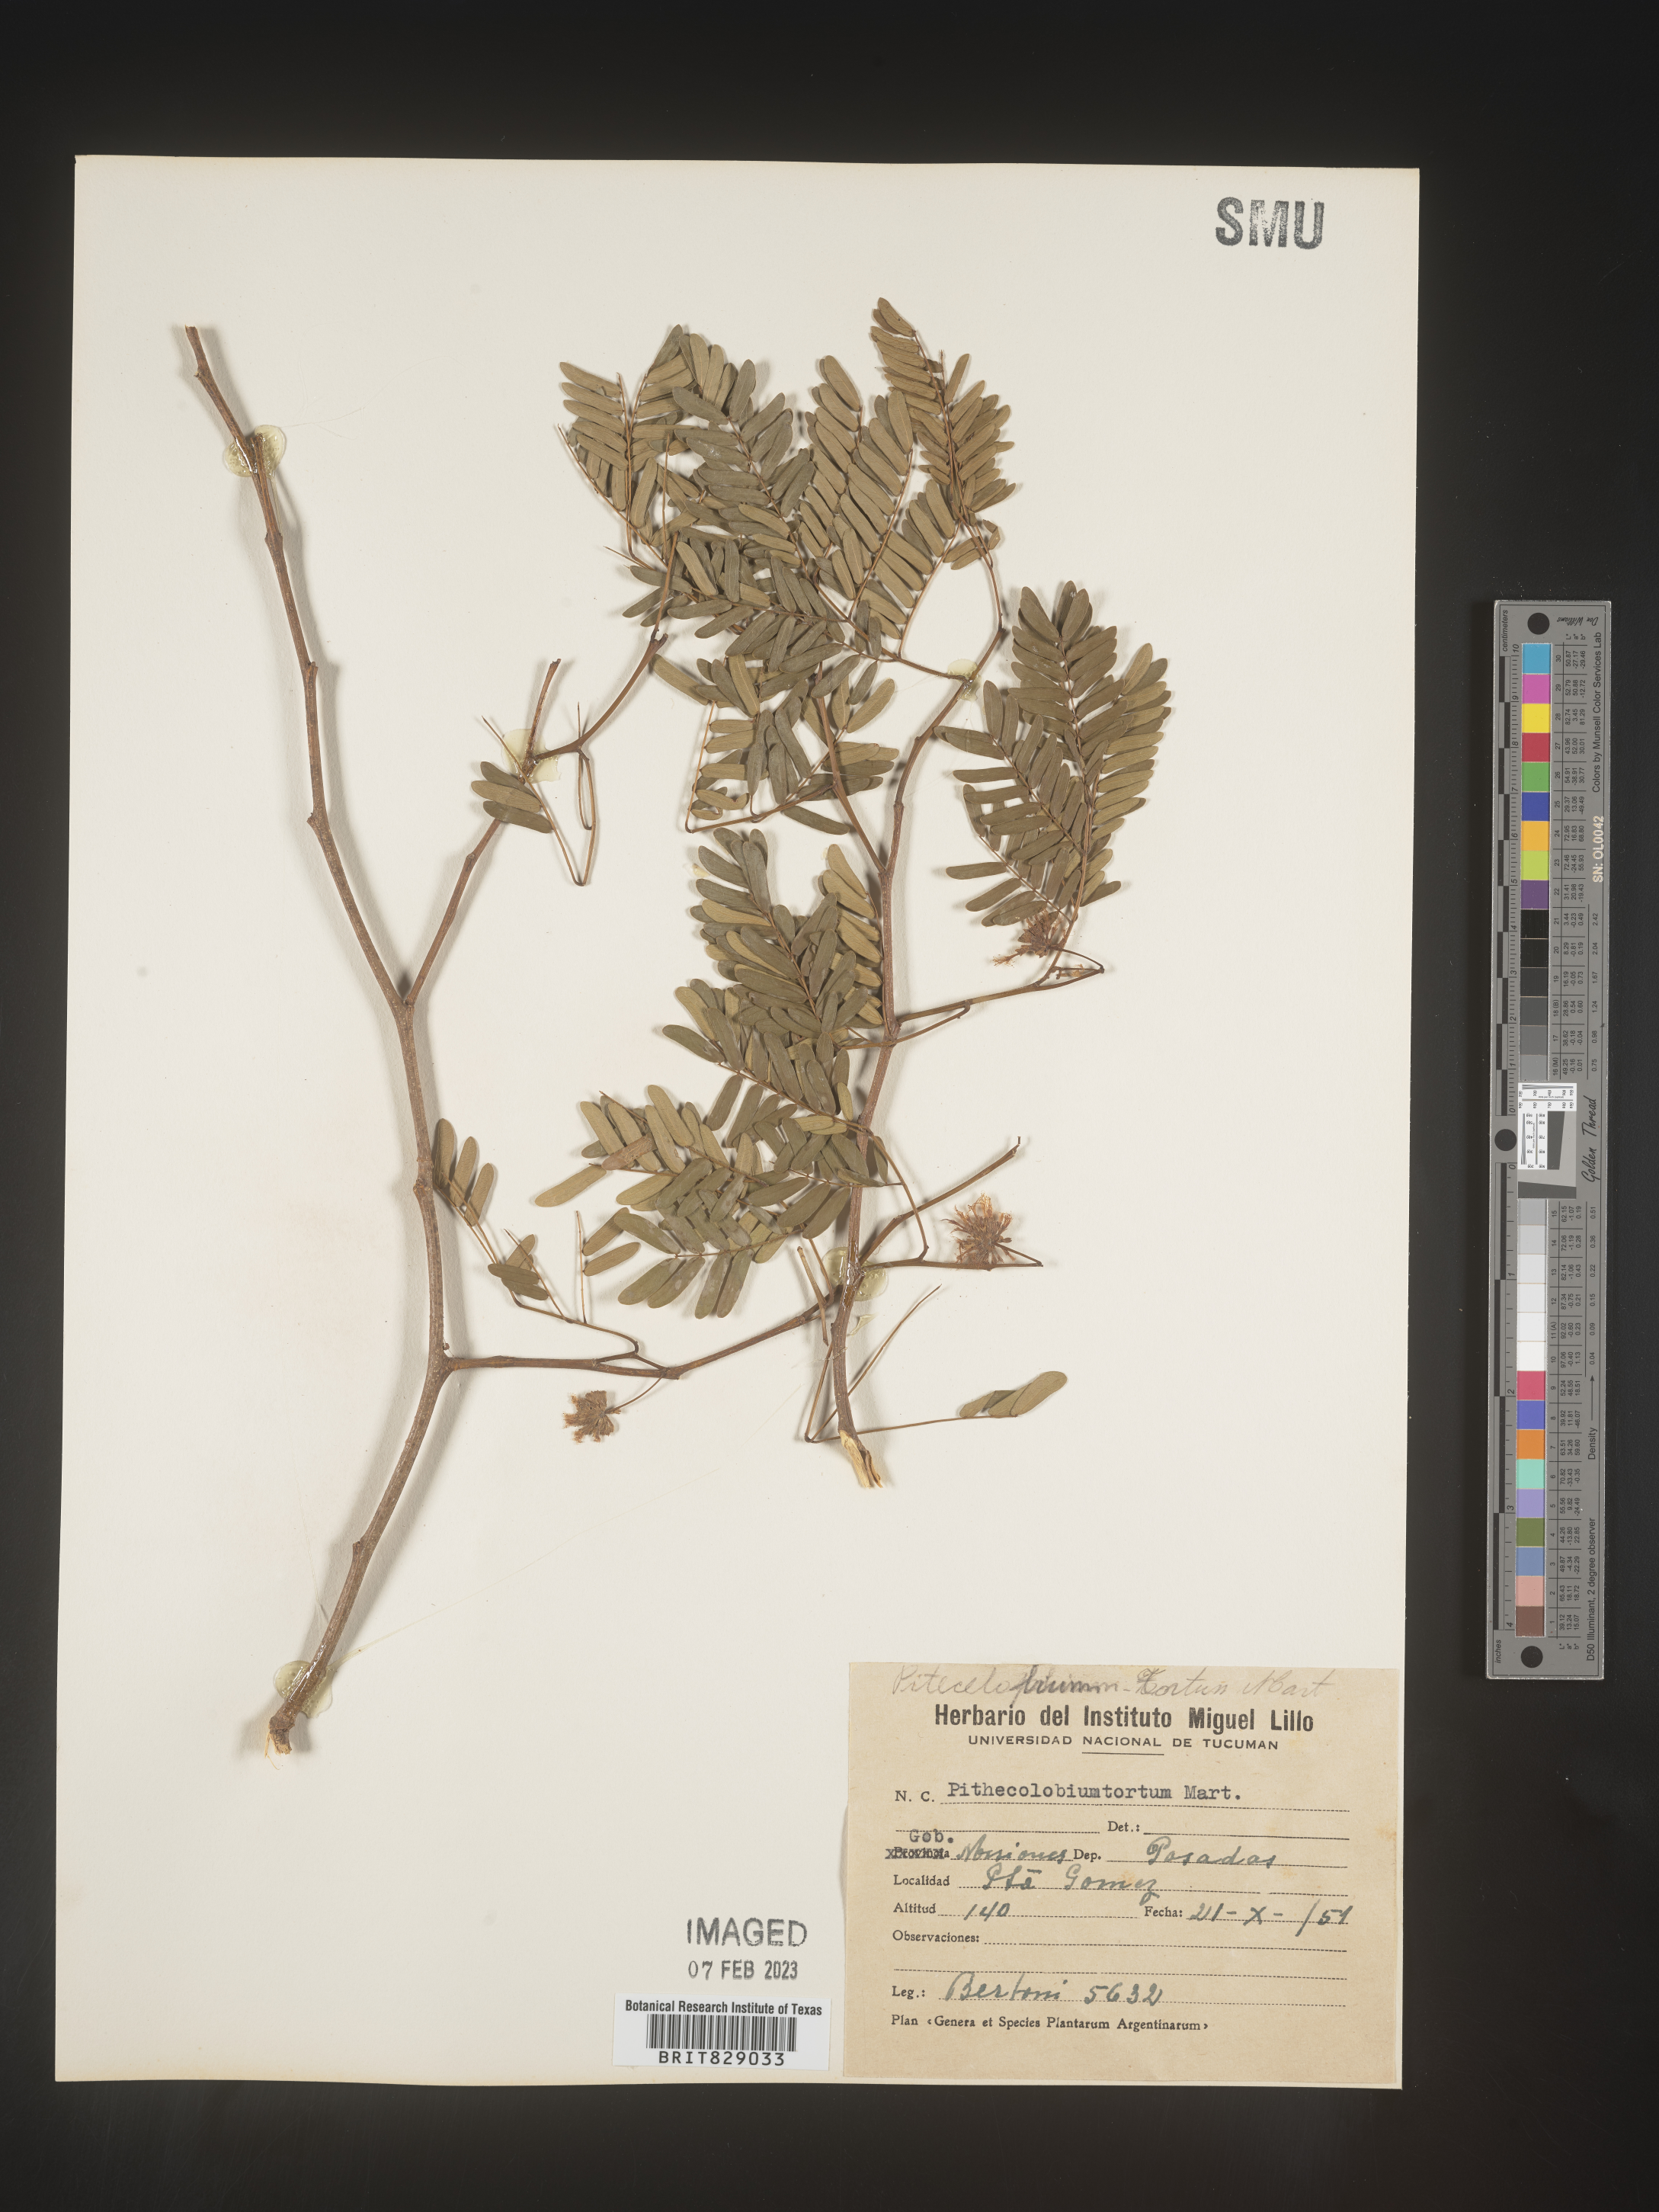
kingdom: Plantae
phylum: Tracheophyta
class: Magnoliopsida
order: Fabales
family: Fabaceae
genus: Pithecellobium
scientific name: Pithecellobium
